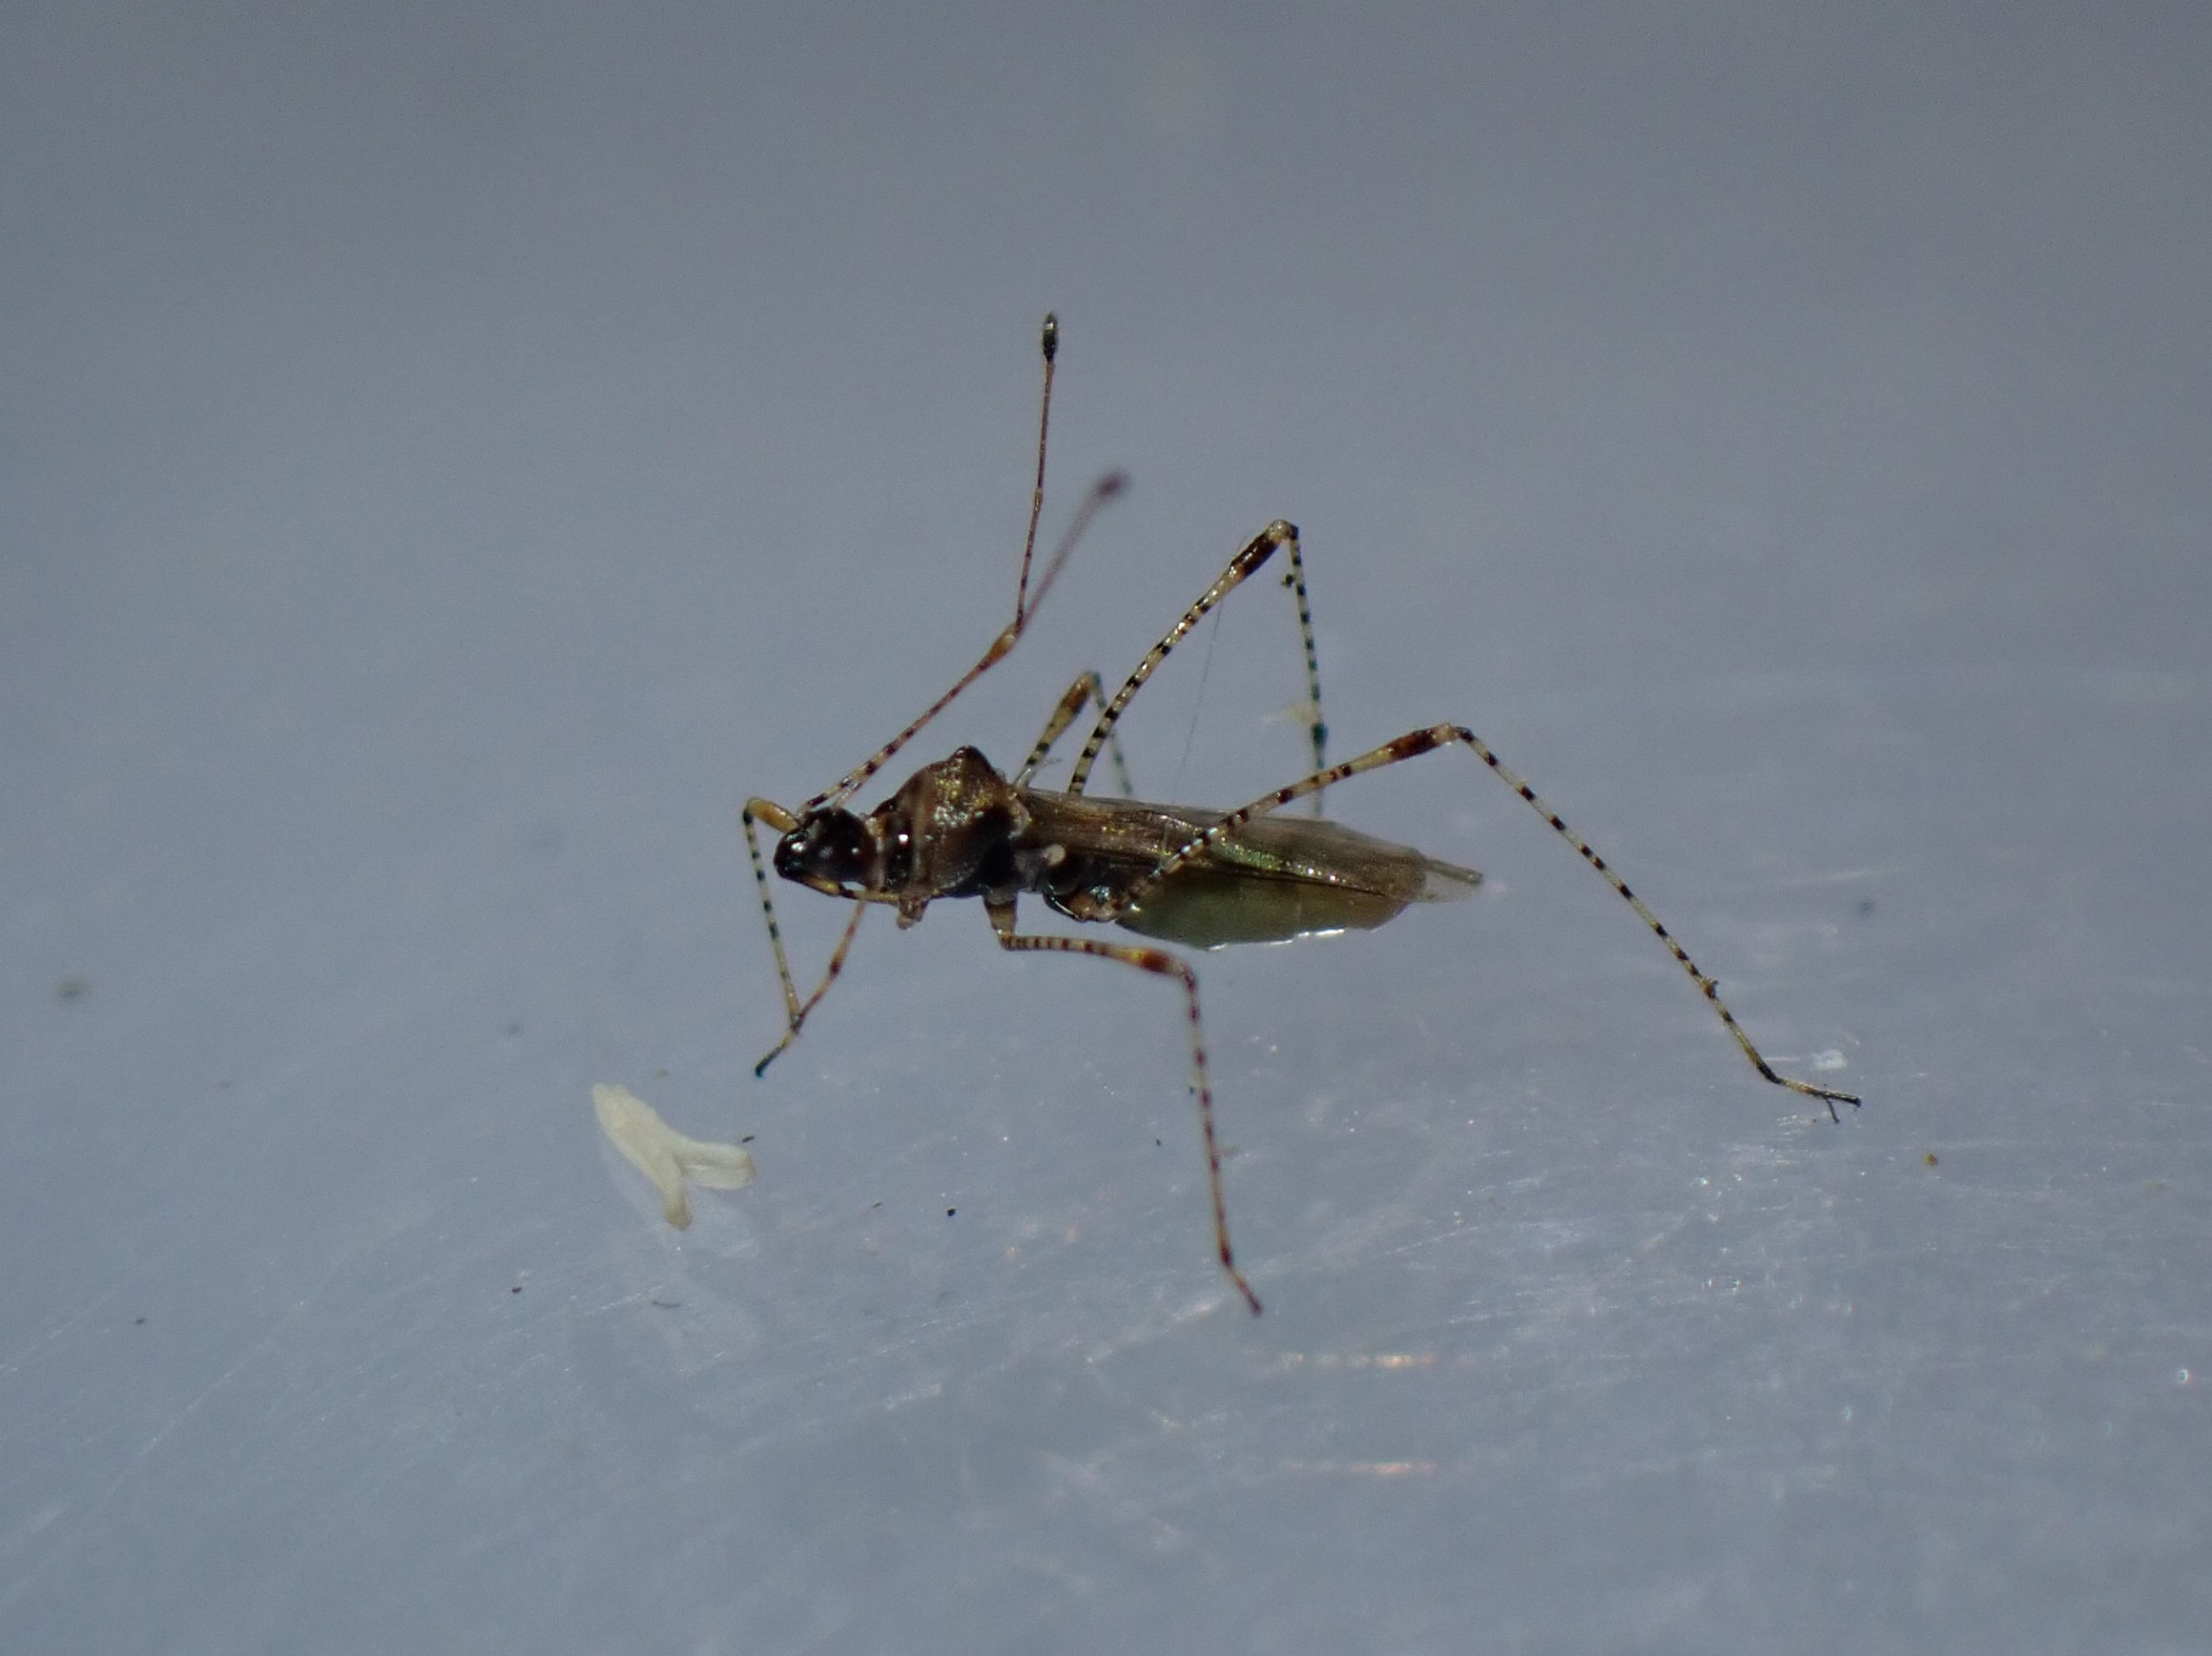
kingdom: Animalia
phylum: Arthropoda
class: Insecta
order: Hemiptera
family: Berytidae
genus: Gampsocoris
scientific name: Gampsocoris punctipes
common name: Krageklotæge
